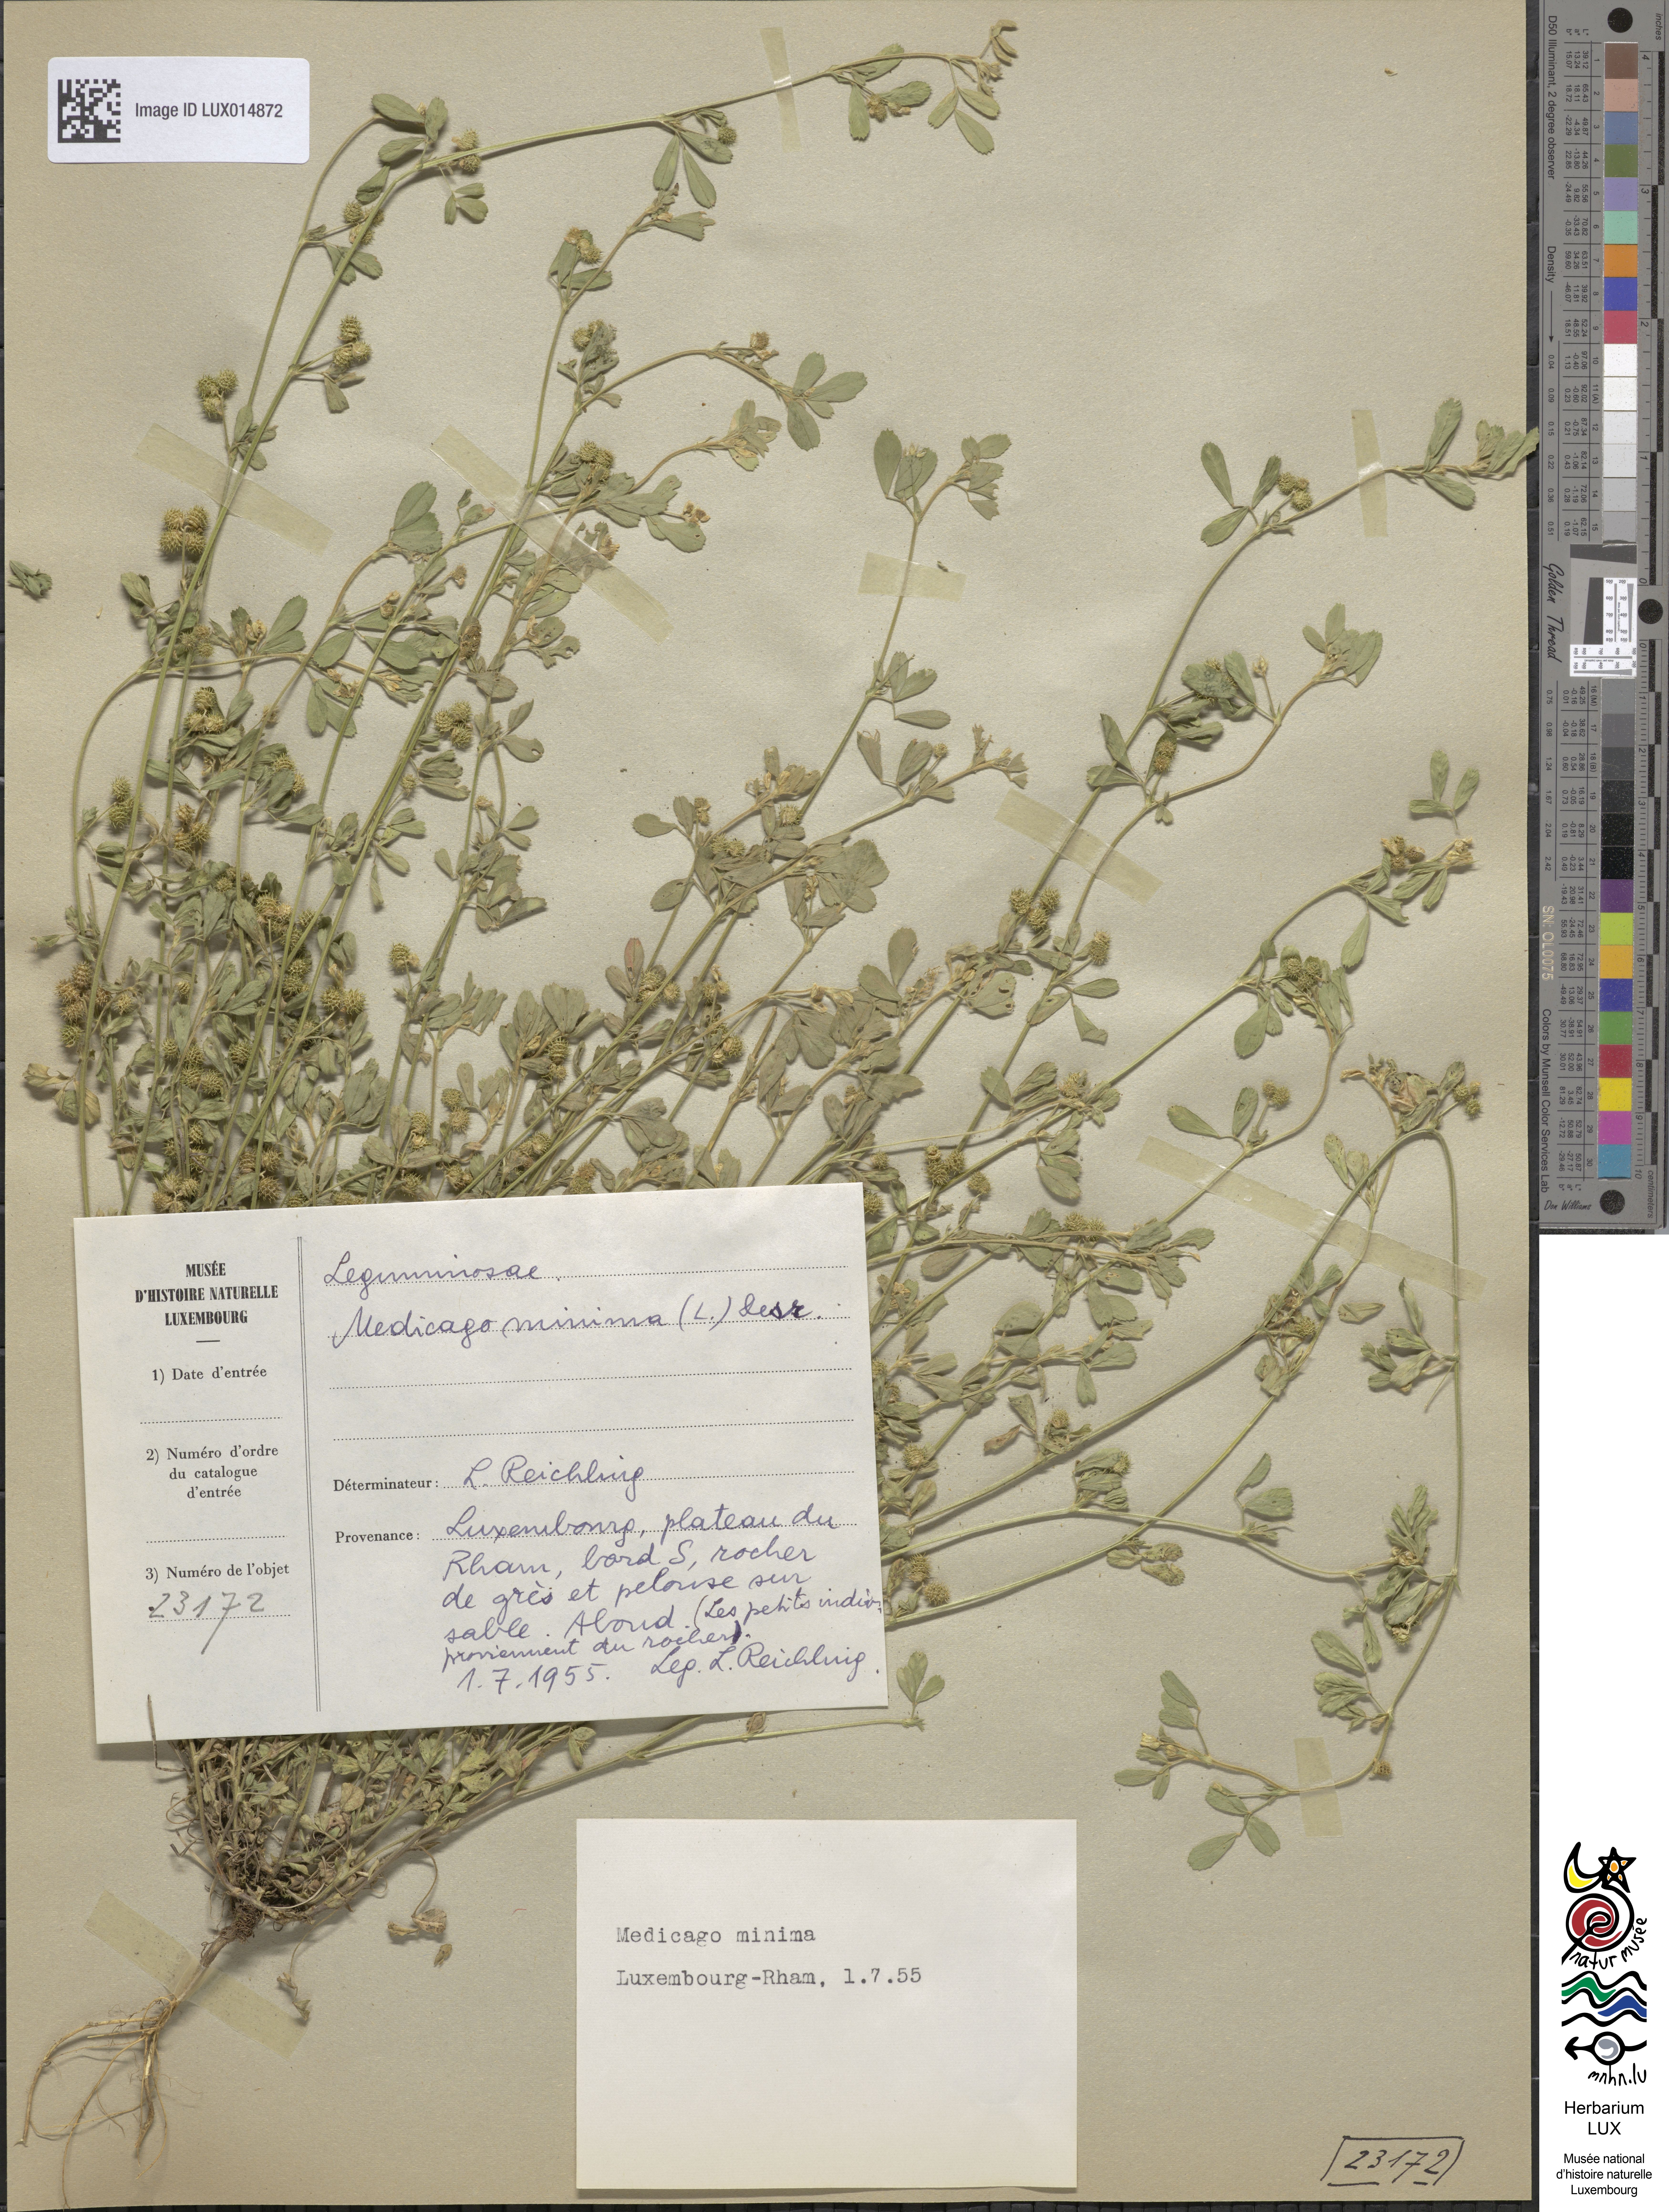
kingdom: Plantae
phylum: Tracheophyta
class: Magnoliopsida
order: Fabales
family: Fabaceae
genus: Medicago
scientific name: Medicago minima
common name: Little bur-clover
